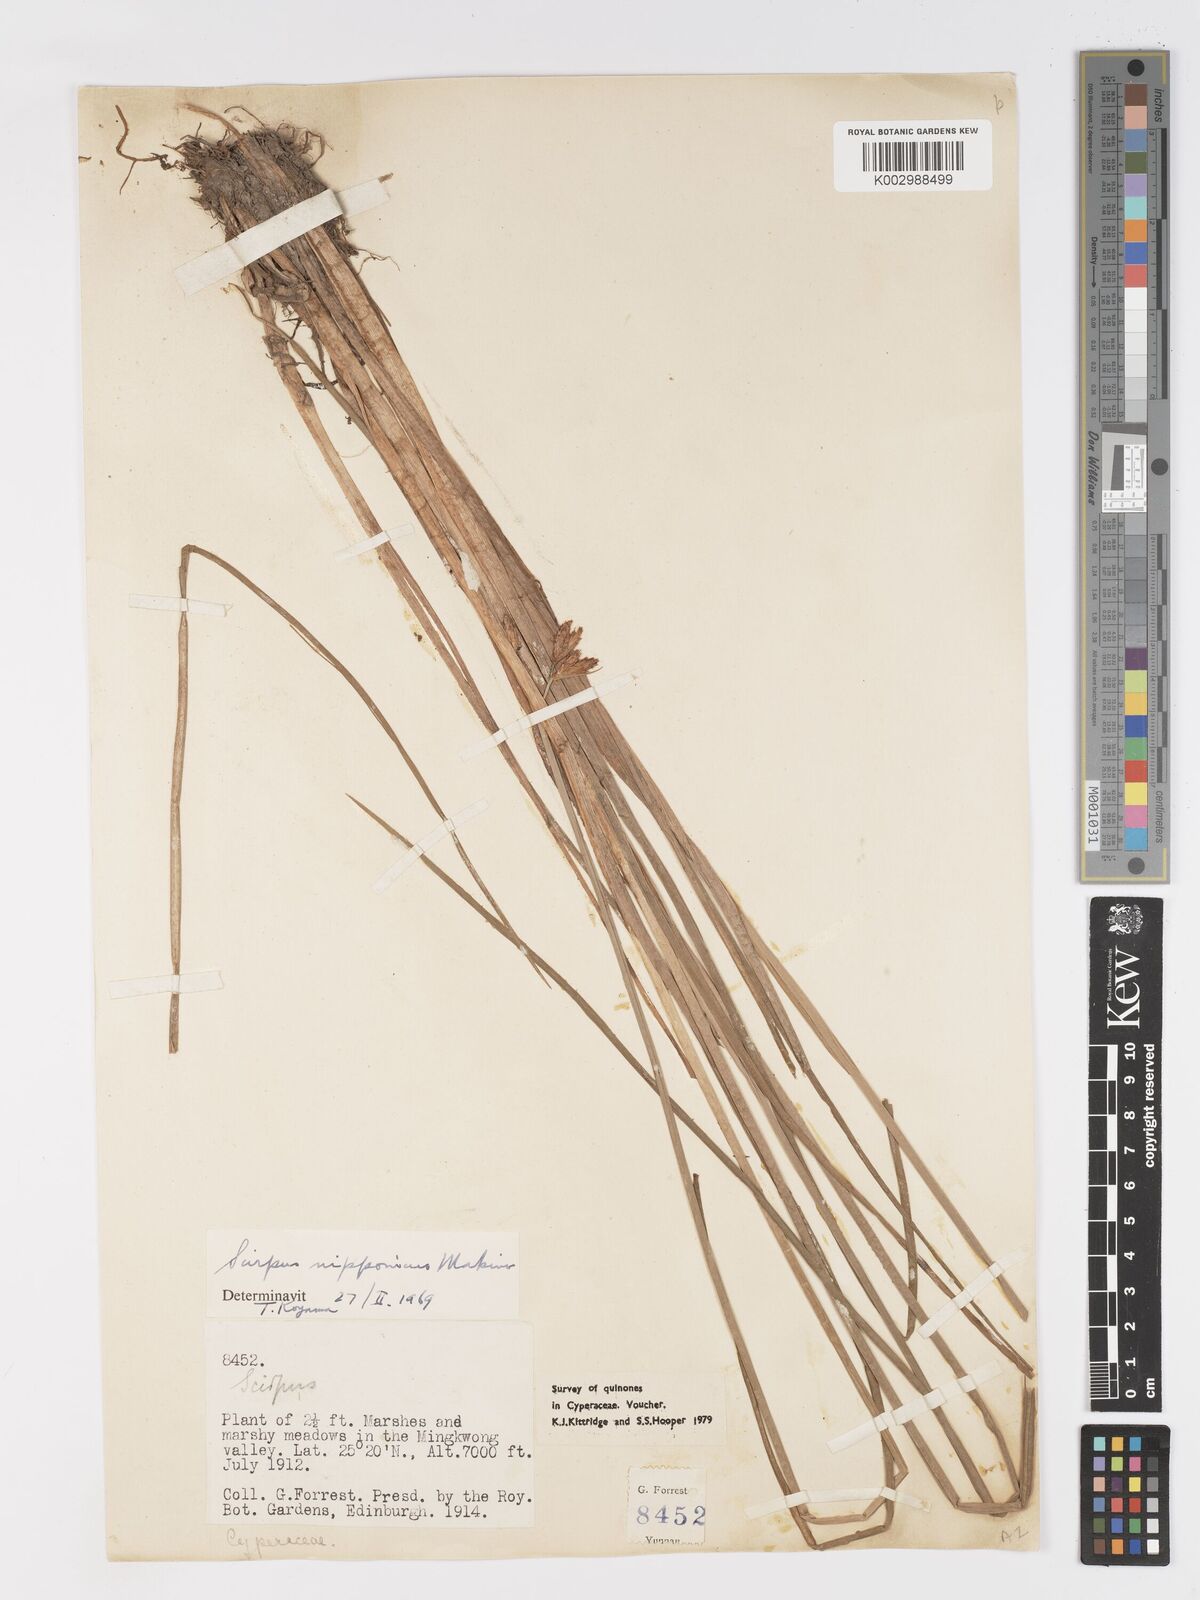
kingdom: Plantae
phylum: Tracheophyta
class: Liliopsida
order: Poales
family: Cyperaceae
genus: Schoenoplectus
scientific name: Schoenoplectus nipponicus
